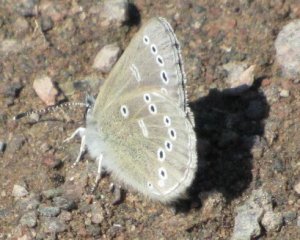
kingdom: Animalia
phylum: Arthropoda
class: Insecta
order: Lepidoptera
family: Lycaenidae
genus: Glaucopsyche
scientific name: Glaucopsyche lygdamus
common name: Silvery Blue
